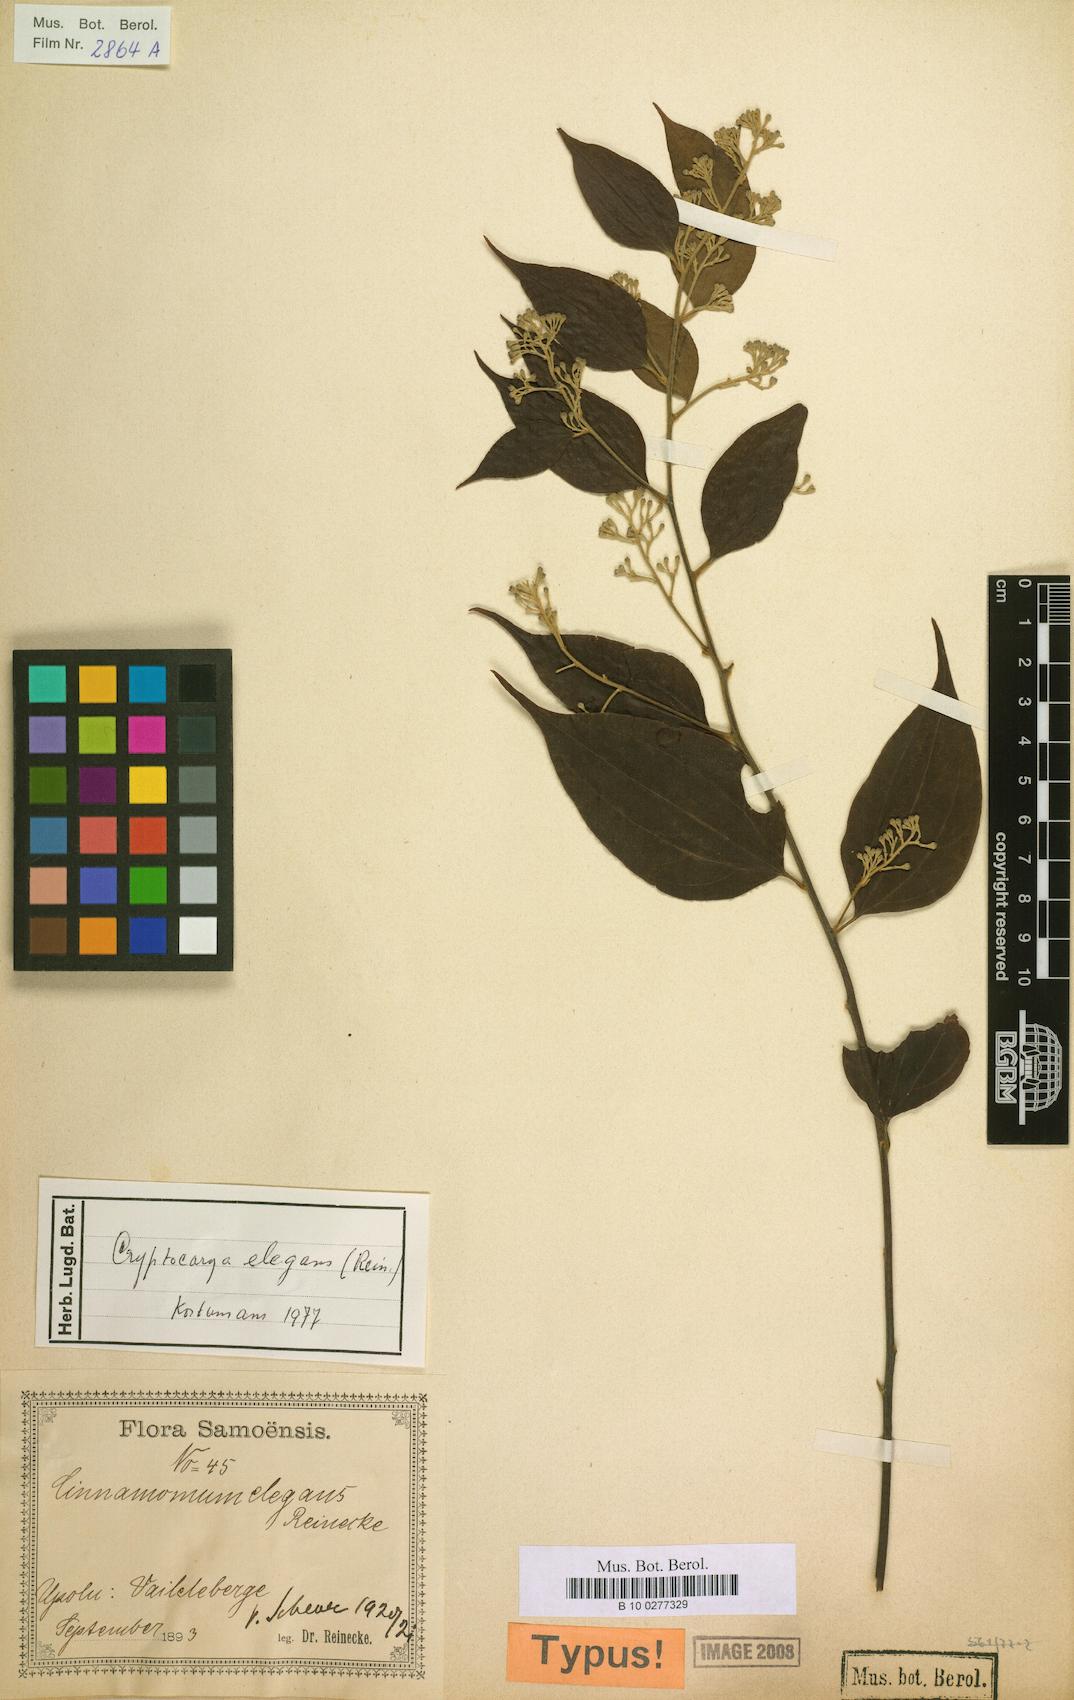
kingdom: Plantae
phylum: Tracheophyta
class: Magnoliopsida
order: Laurales
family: Lauraceae
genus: Cryptocarya
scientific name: Cryptocarya elegans
